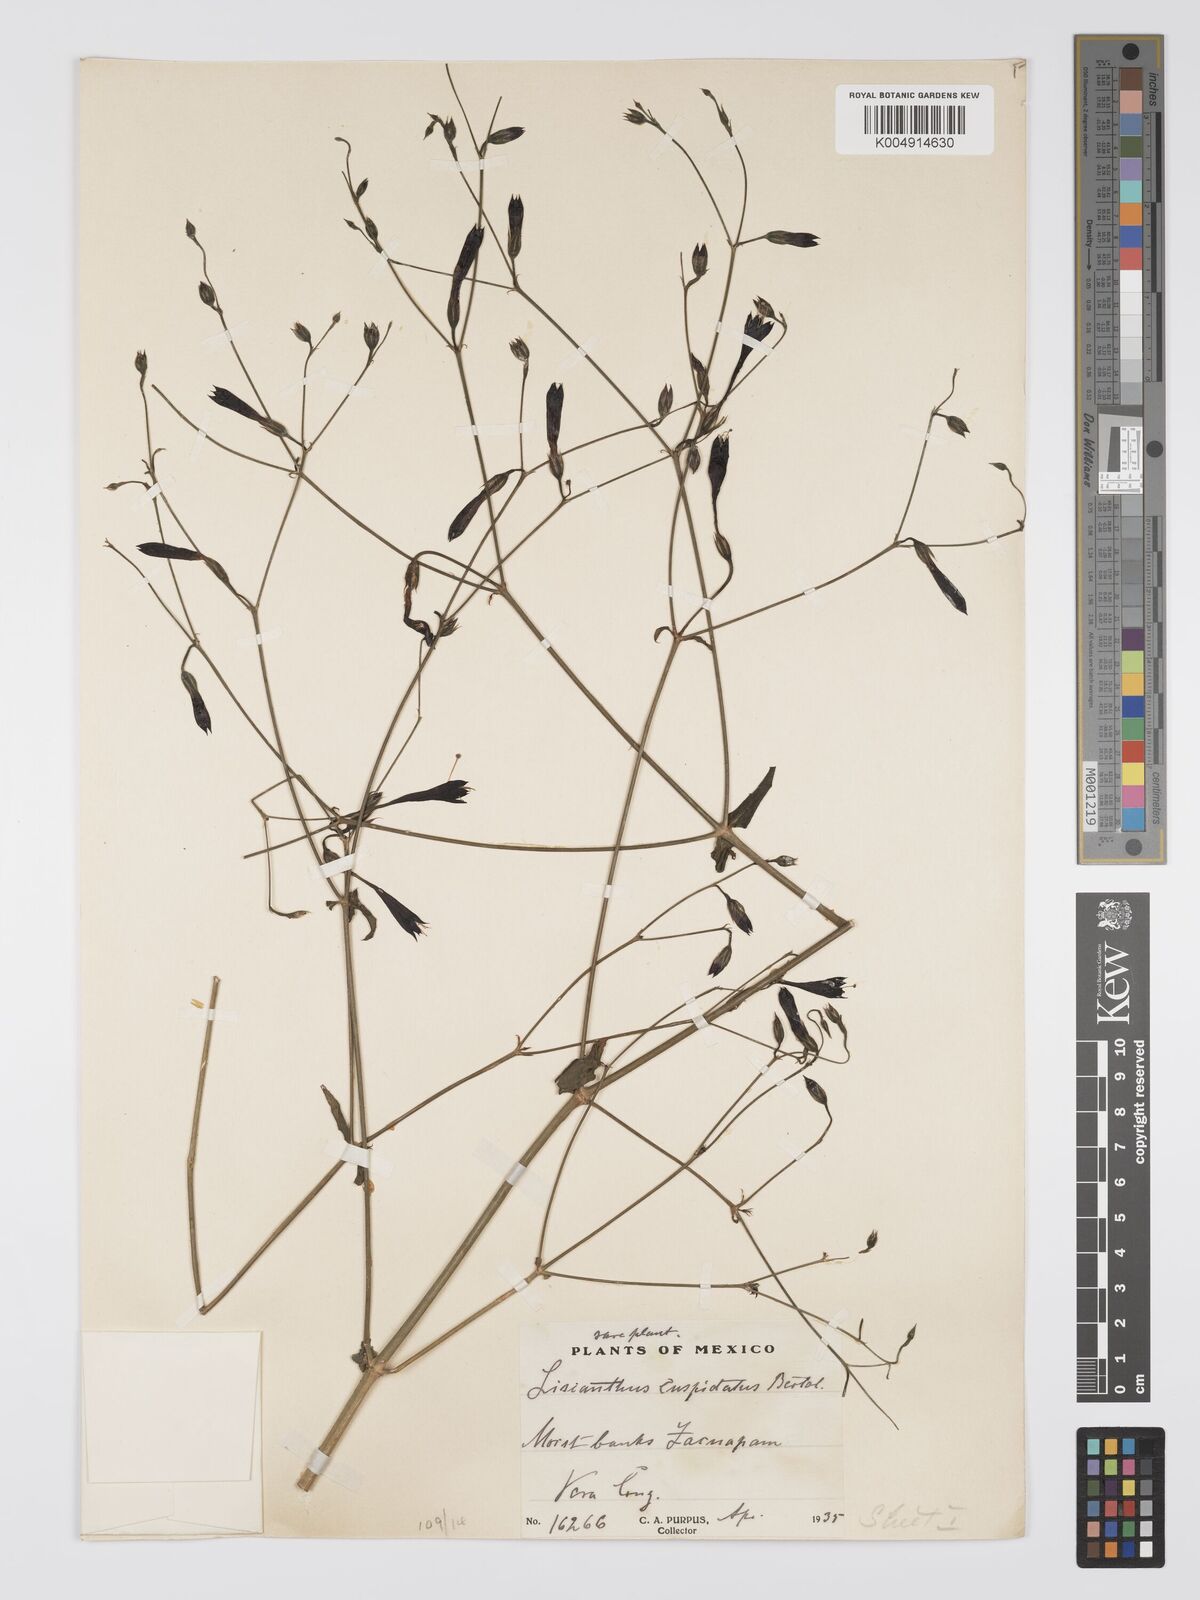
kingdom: Plantae
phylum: Tracheophyta
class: Magnoliopsida
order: Gentianales
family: Gentianaceae
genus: Lisianthius
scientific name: Lisianthius cuspidatus
